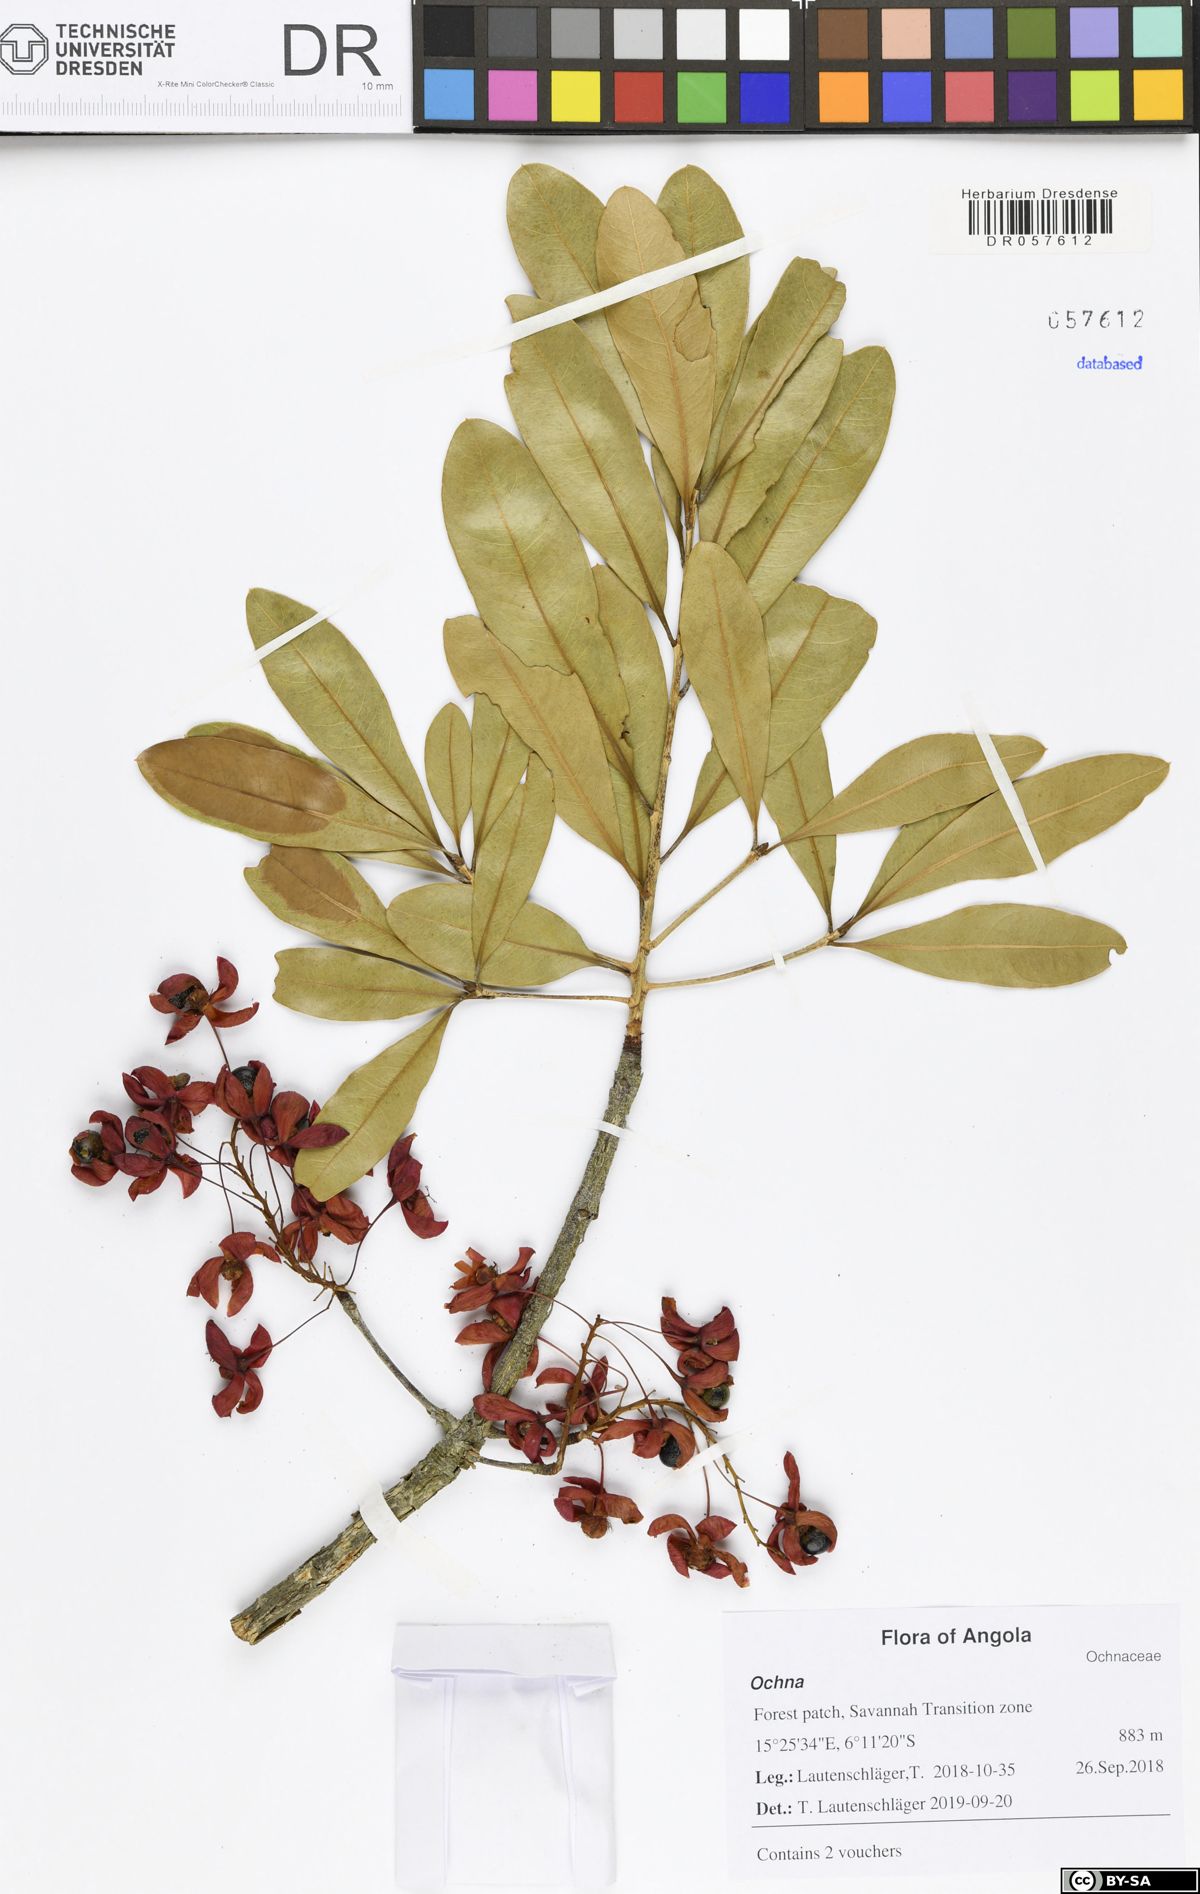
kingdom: Plantae
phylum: Tracheophyta
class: Magnoliopsida
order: Malpighiales
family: Ochnaceae
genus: Ochna
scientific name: Ochna pulchra
